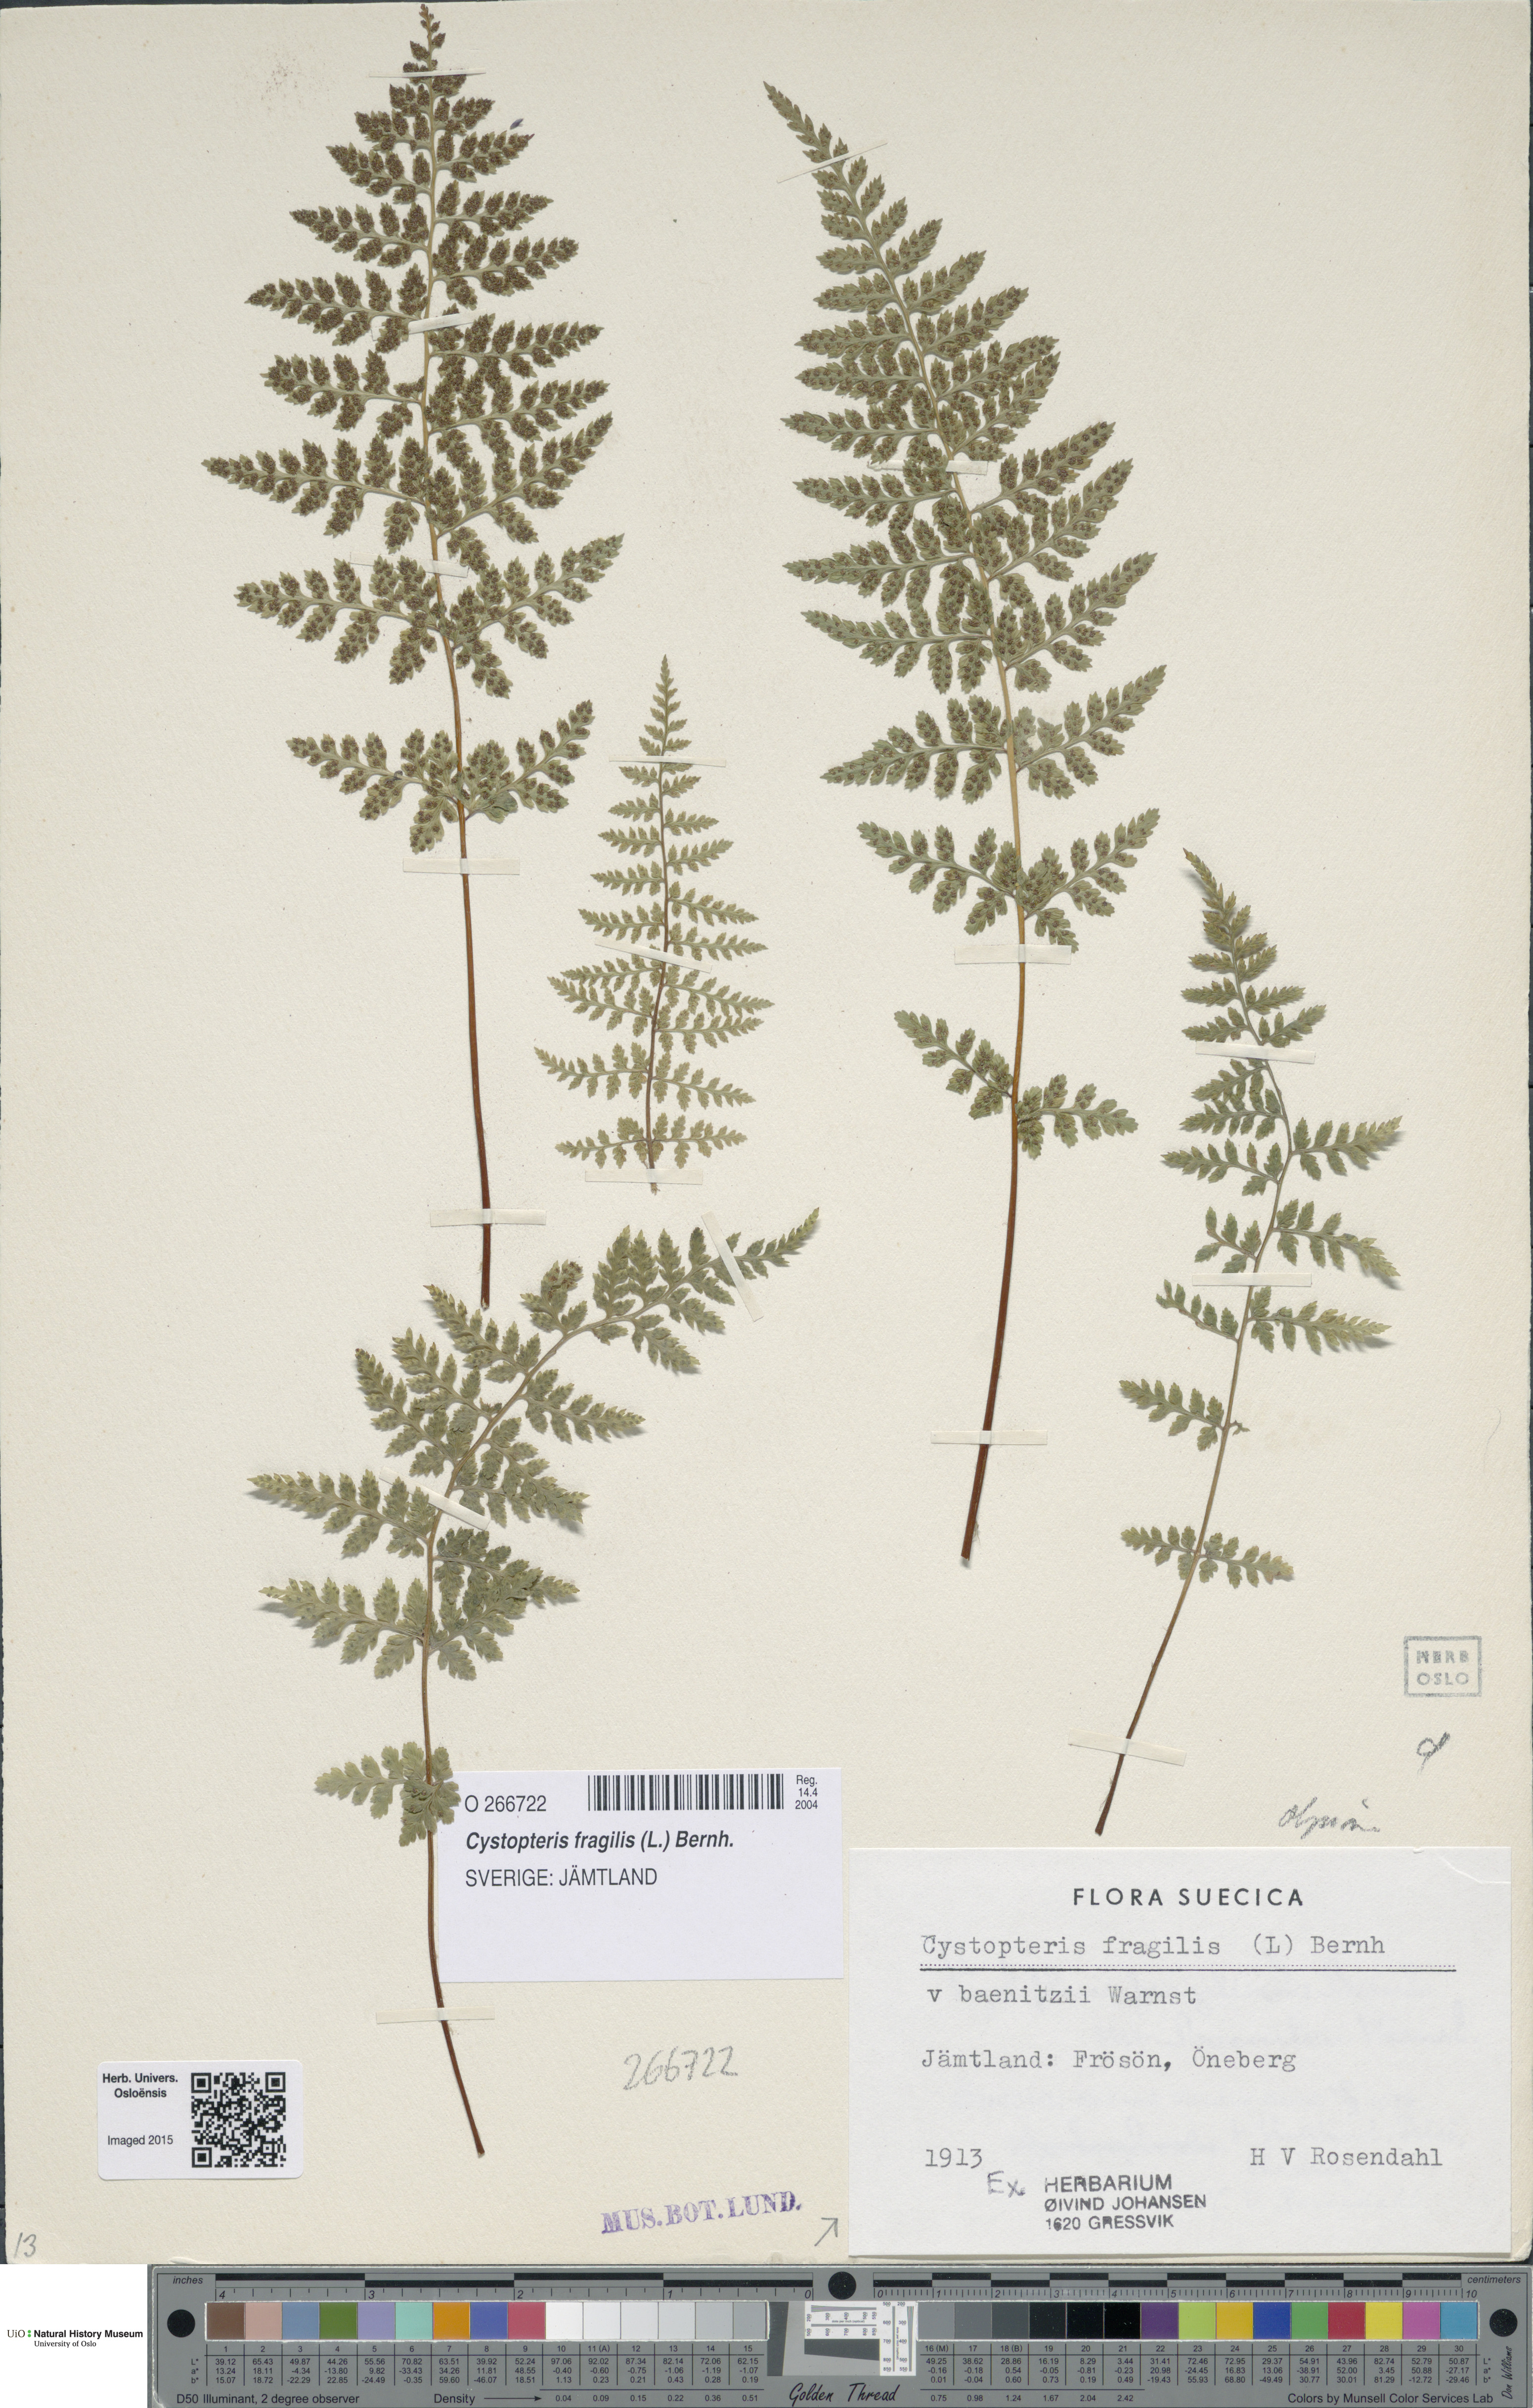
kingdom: Plantae
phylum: Tracheophyta
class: Polypodiopsida
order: Polypodiales
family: Cystopteridaceae
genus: Cystopteris
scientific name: Cystopteris fragilis
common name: Brittle bladder fern
